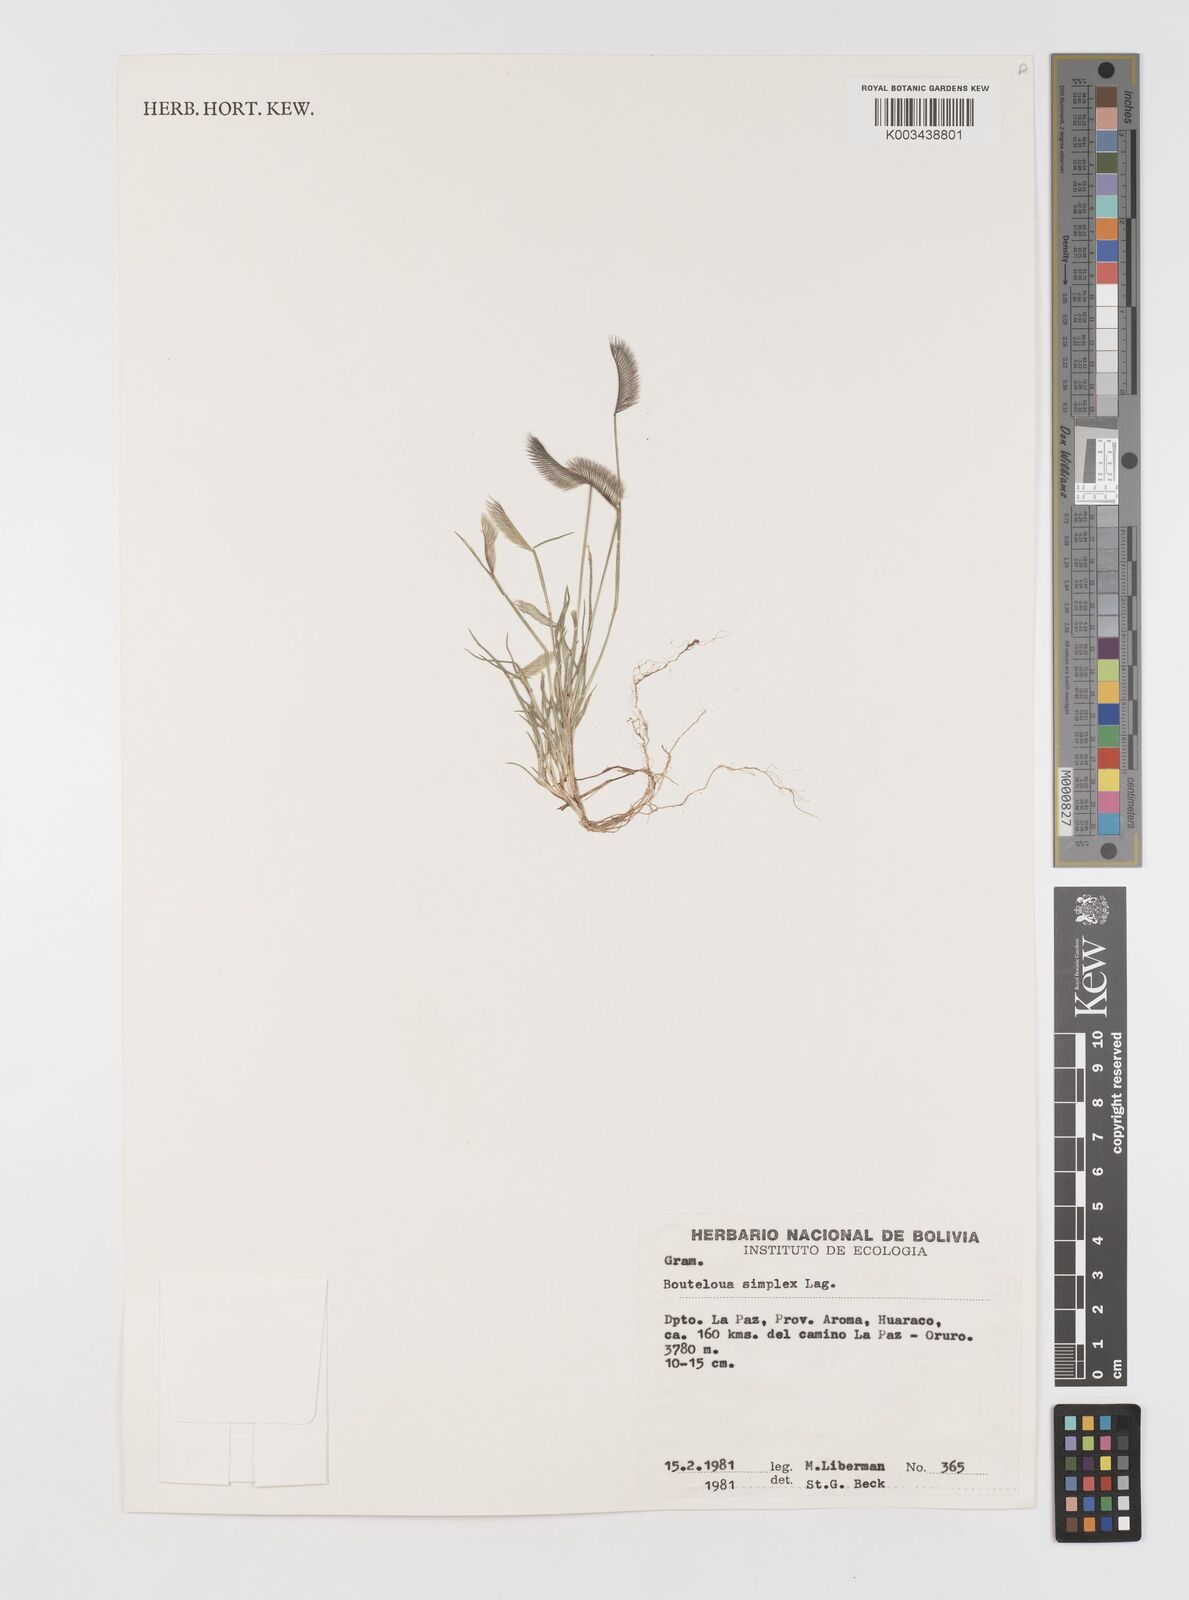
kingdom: Plantae
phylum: Tracheophyta
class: Liliopsida
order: Poales
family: Poaceae
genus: Bouteloua
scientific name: Bouteloua simplex
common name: Mat grama
